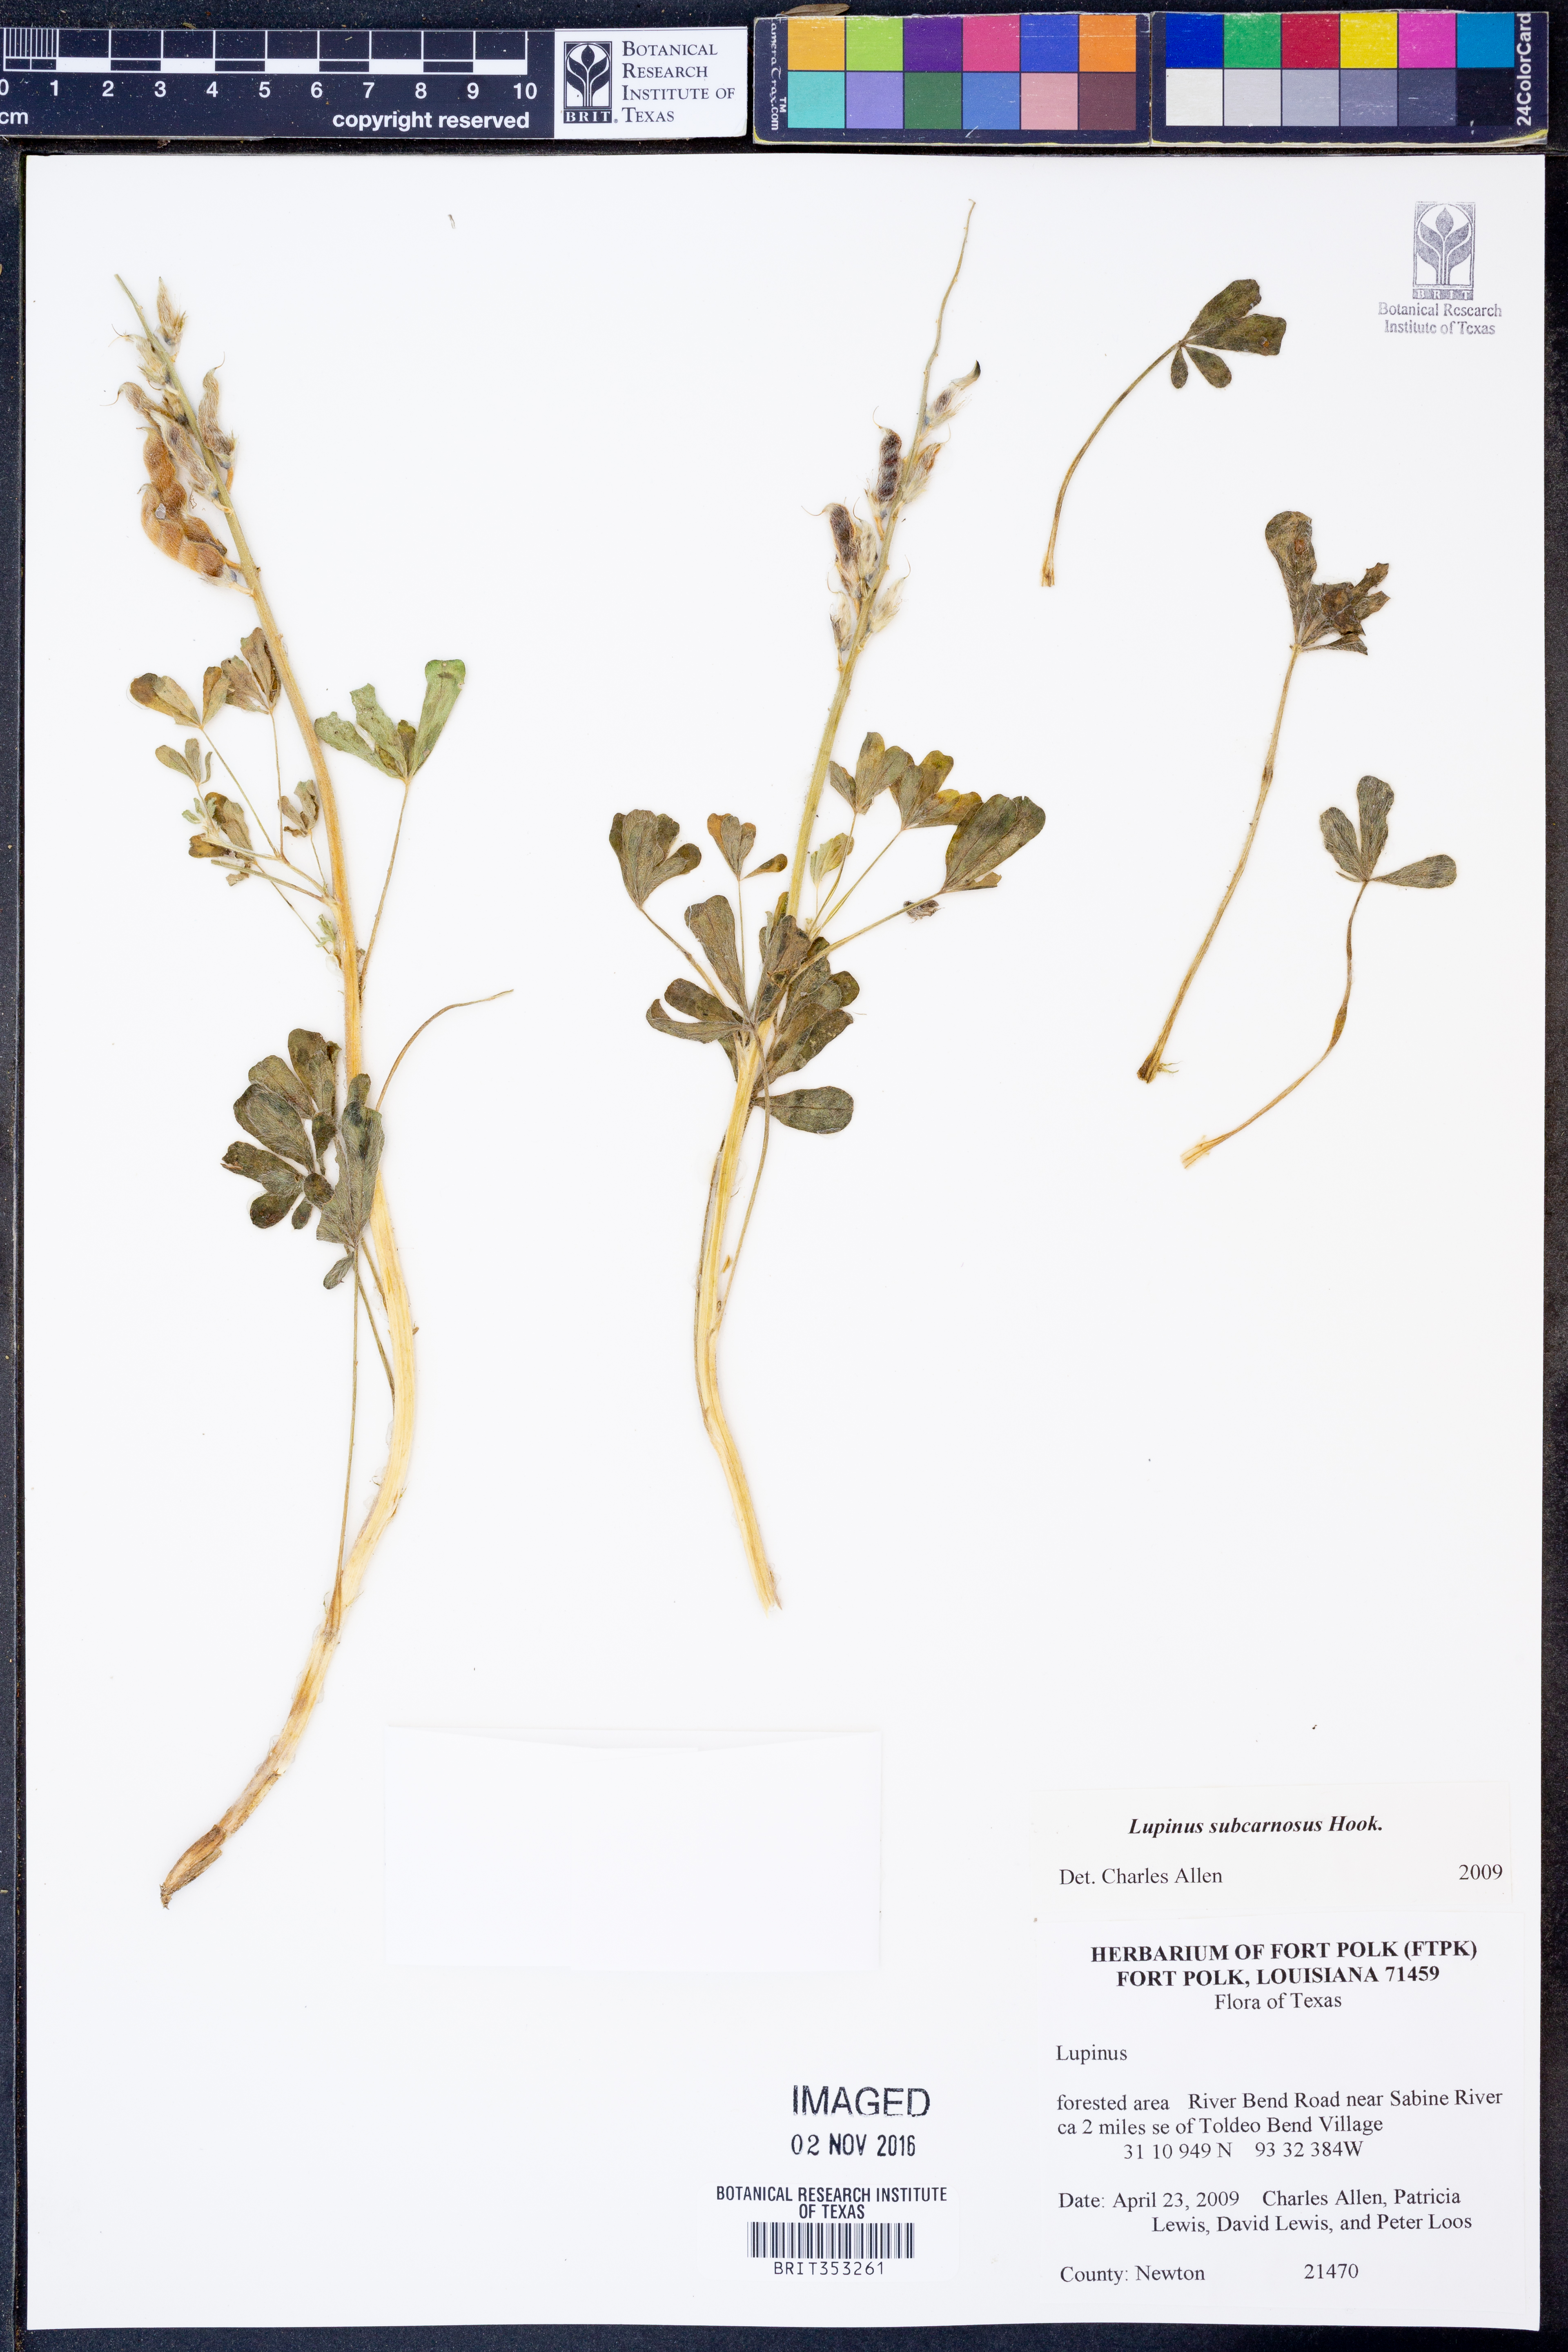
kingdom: Plantae
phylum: Tracheophyta
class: Magnoliopsida
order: Fabales
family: Fabaceae
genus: Lupinus
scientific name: Lupinus
